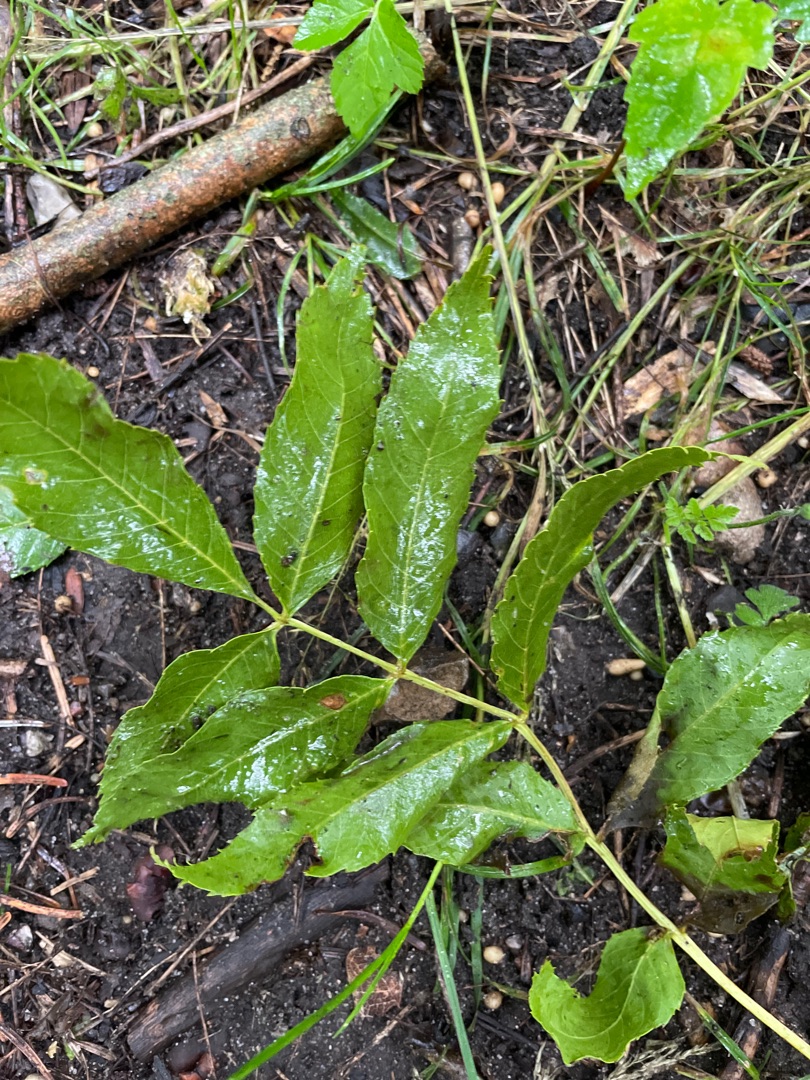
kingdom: Plantae
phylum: Tracheophyta
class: Magnoliopsida
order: Lamiales
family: Oleaceae
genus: Fraxinus
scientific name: Fraxinus excelsior
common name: Ask
